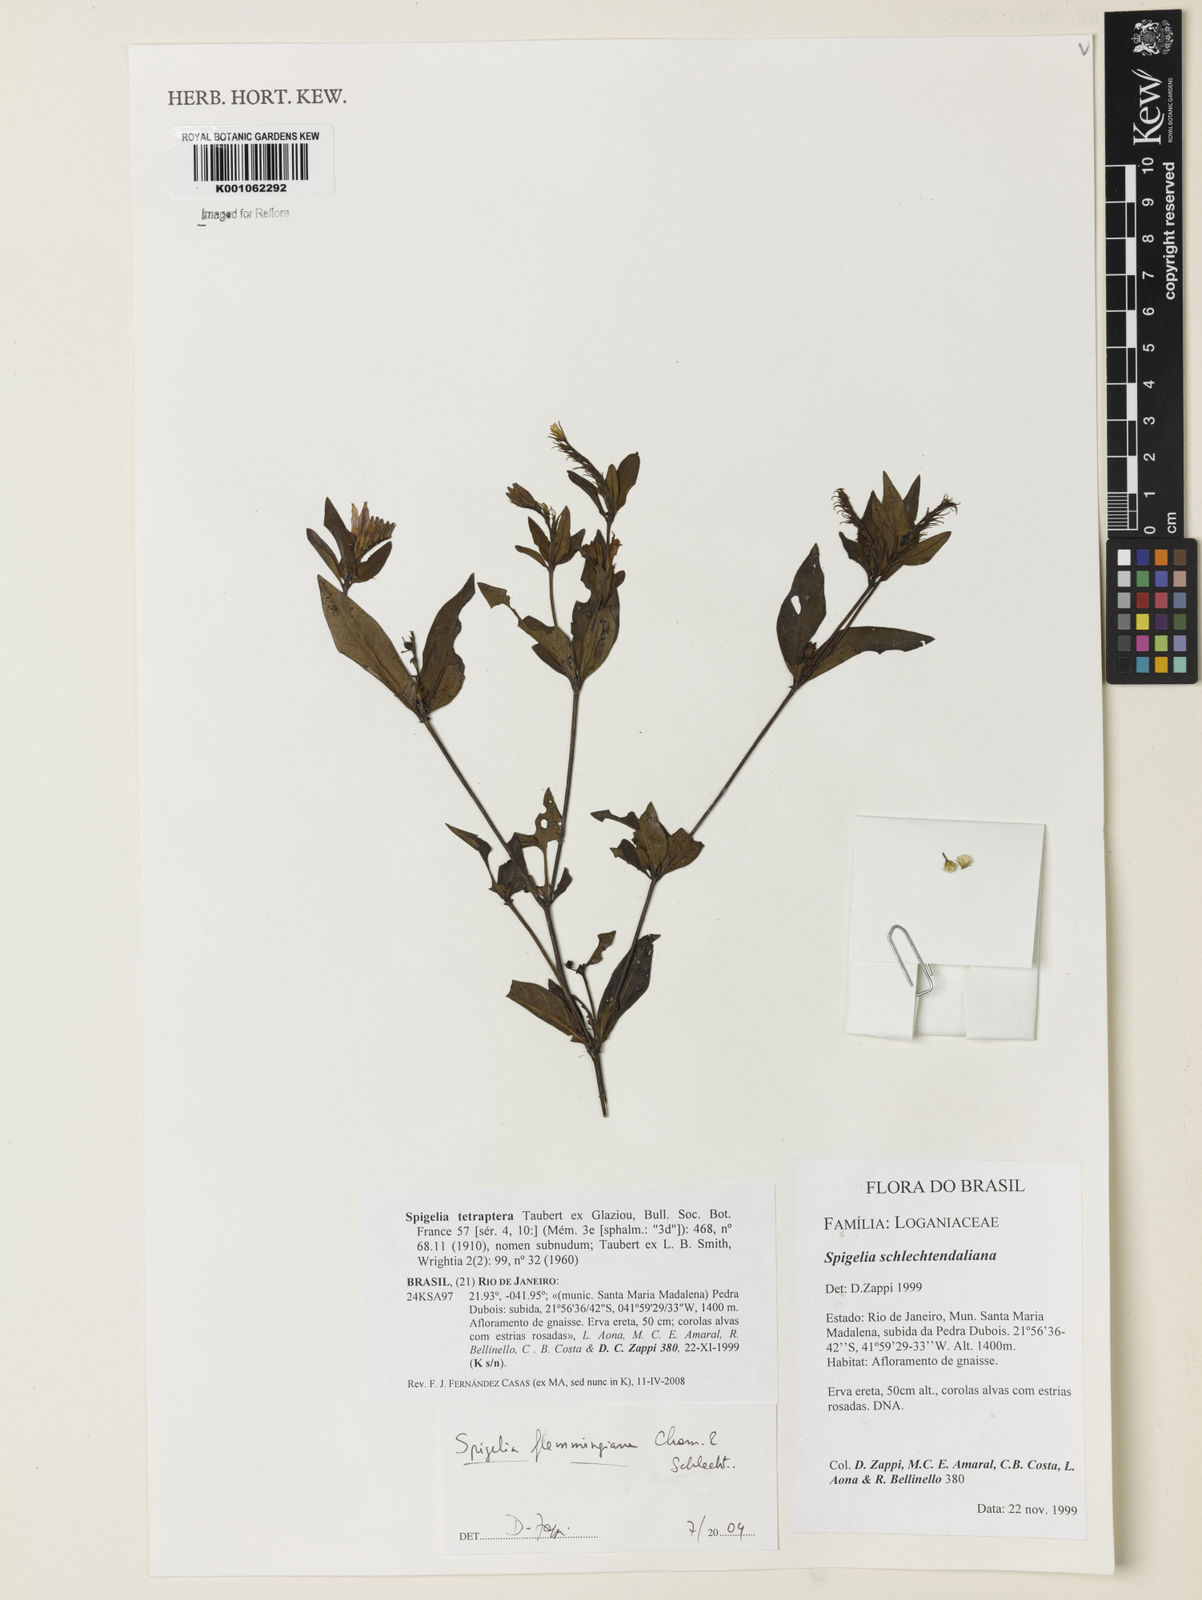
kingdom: Plantae
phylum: Tracheophyta
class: Magnoliopsida
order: Gentianales
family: Loganiaceae
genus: Spigelia
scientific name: Spigelia tetraptera
